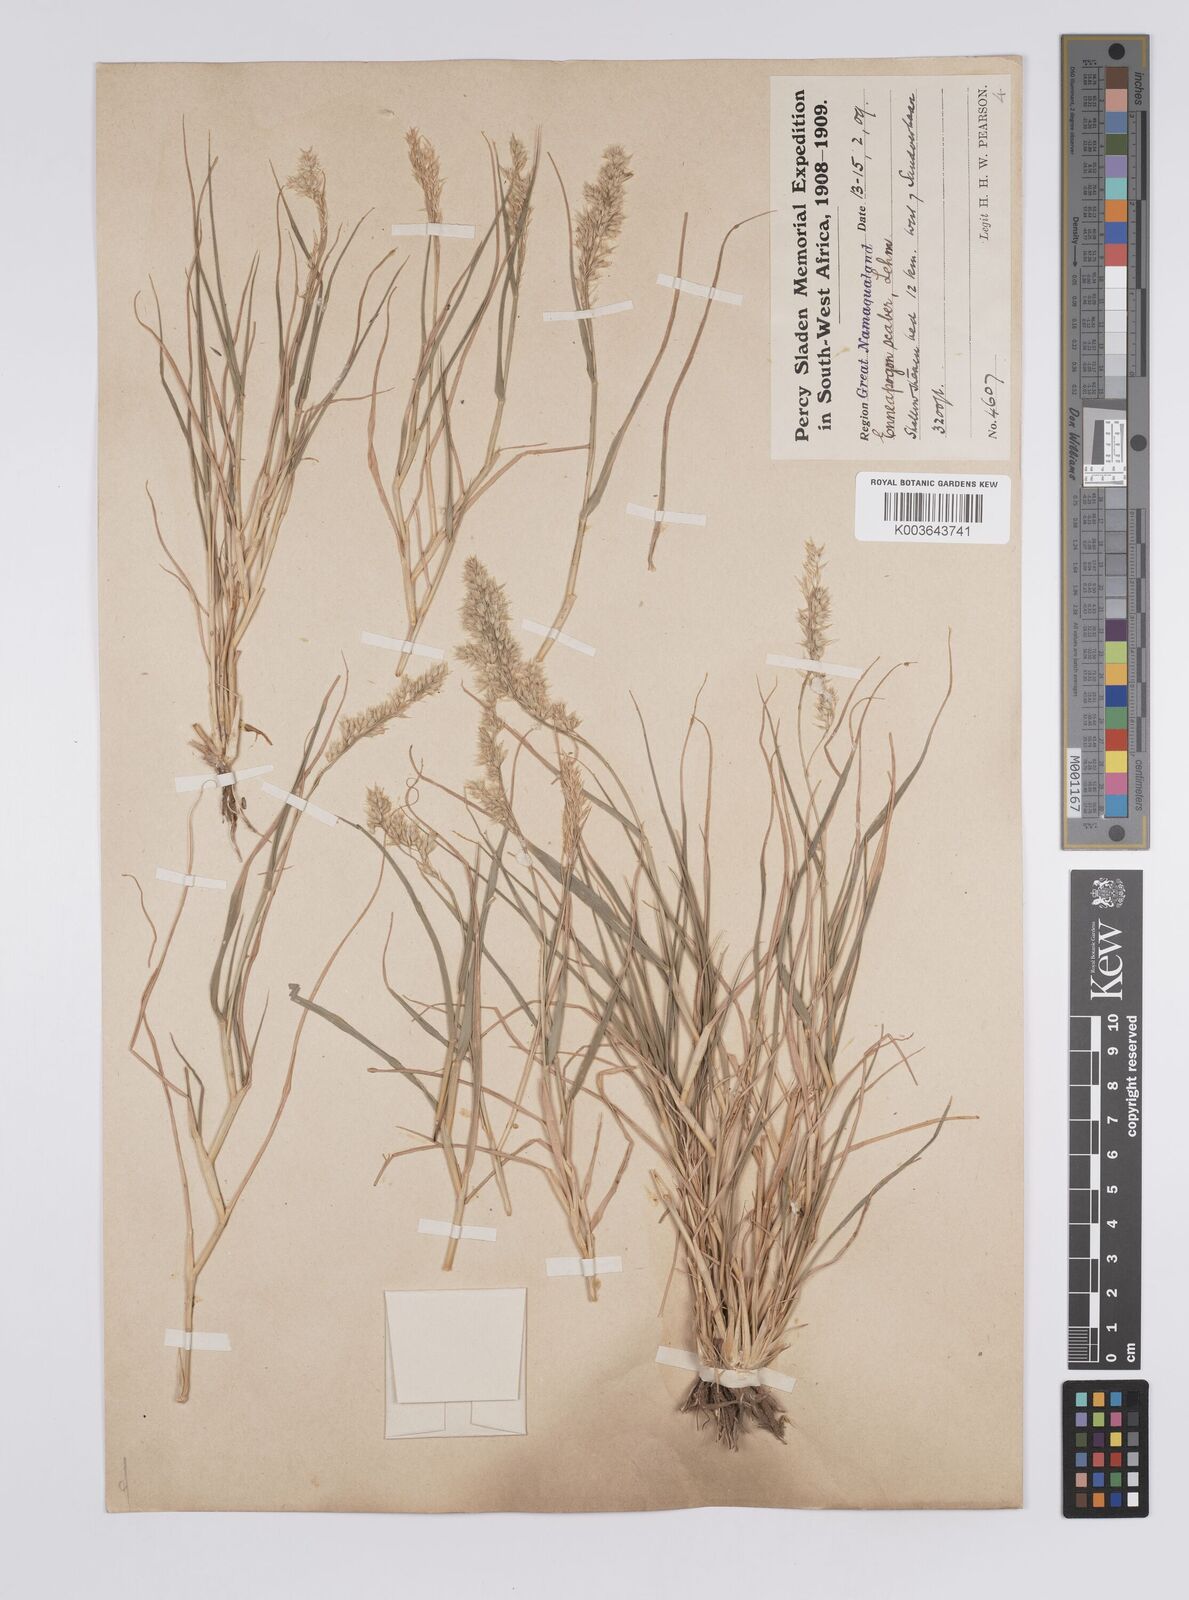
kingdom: Plantae
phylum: Tracheophyta
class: Liliopsida
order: Poales
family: Poaceae
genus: Enneapogon
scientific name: Enneapogon scaber
